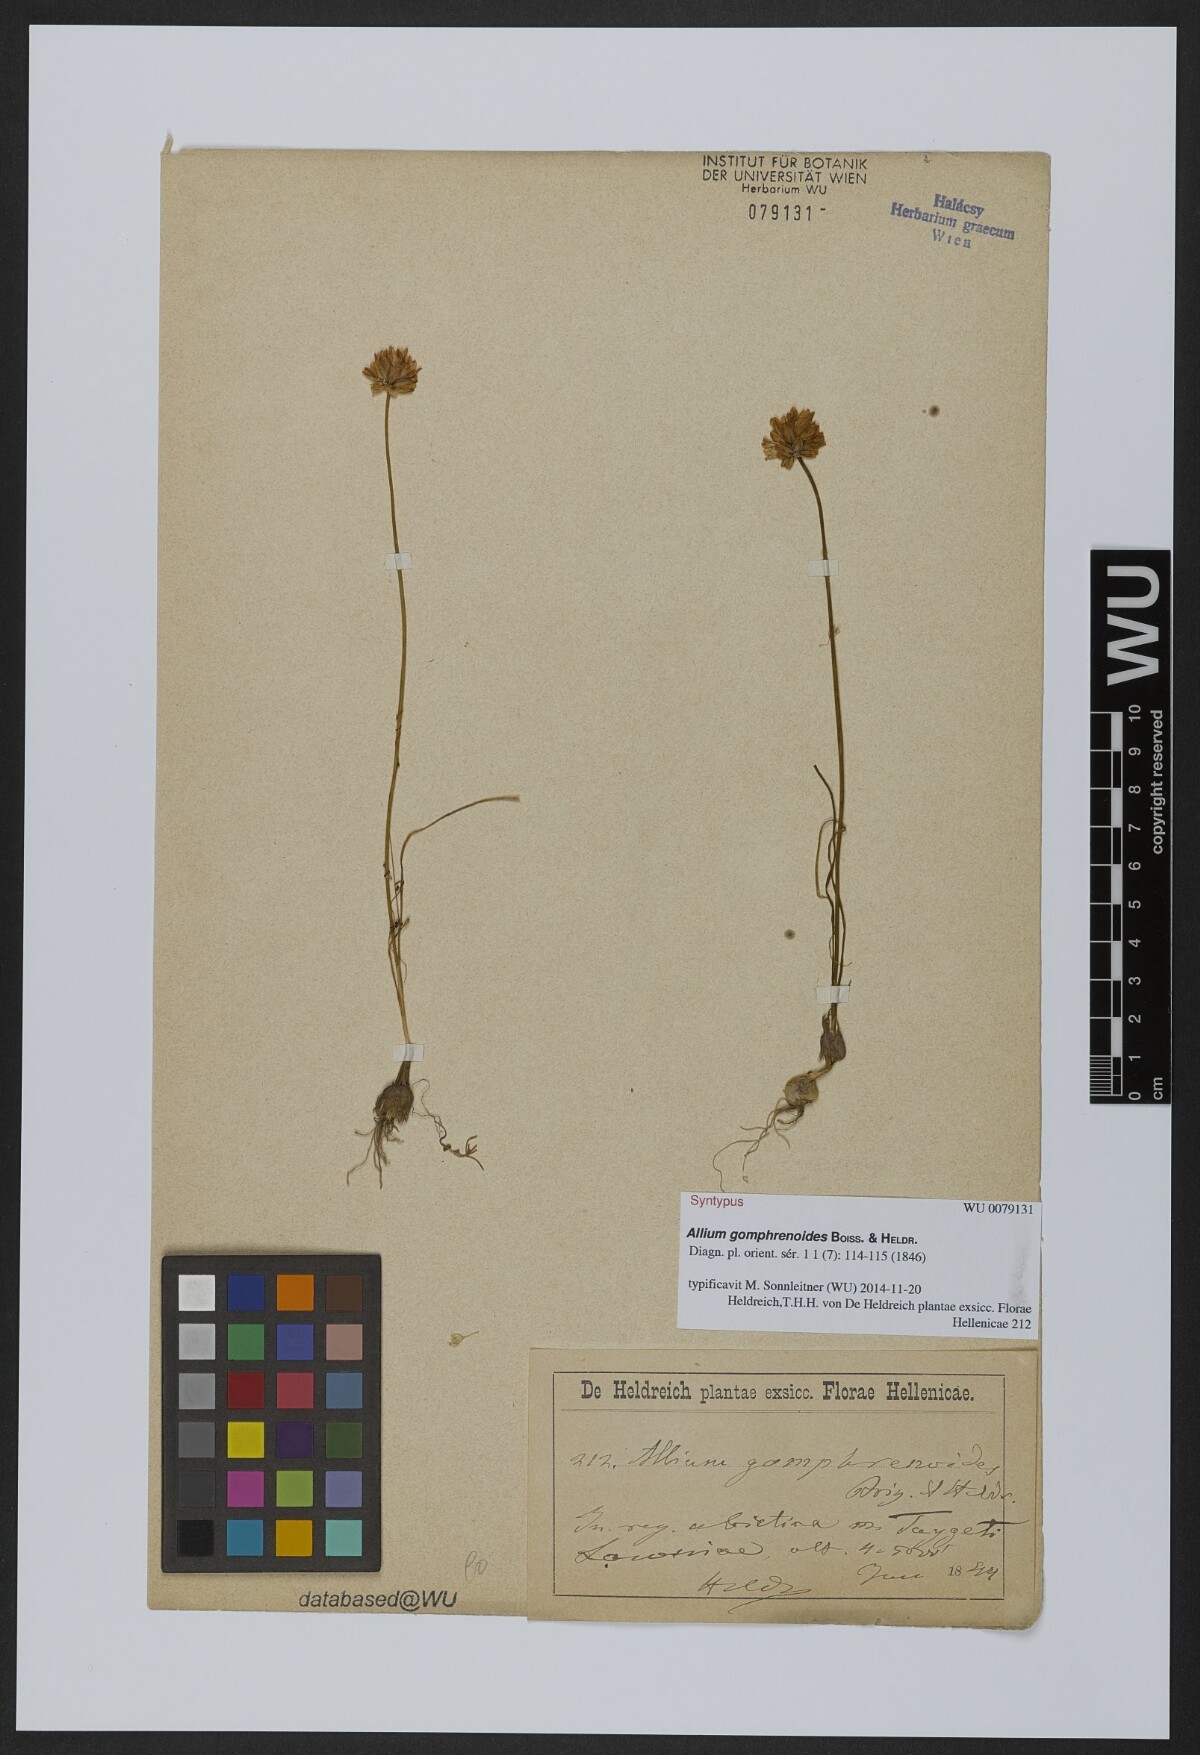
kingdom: Plantae
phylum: Tracheophyta
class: Liliopsida
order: Asparagales
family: Amaryllidaceae
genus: Allium
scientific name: Allium gomphrenoides
